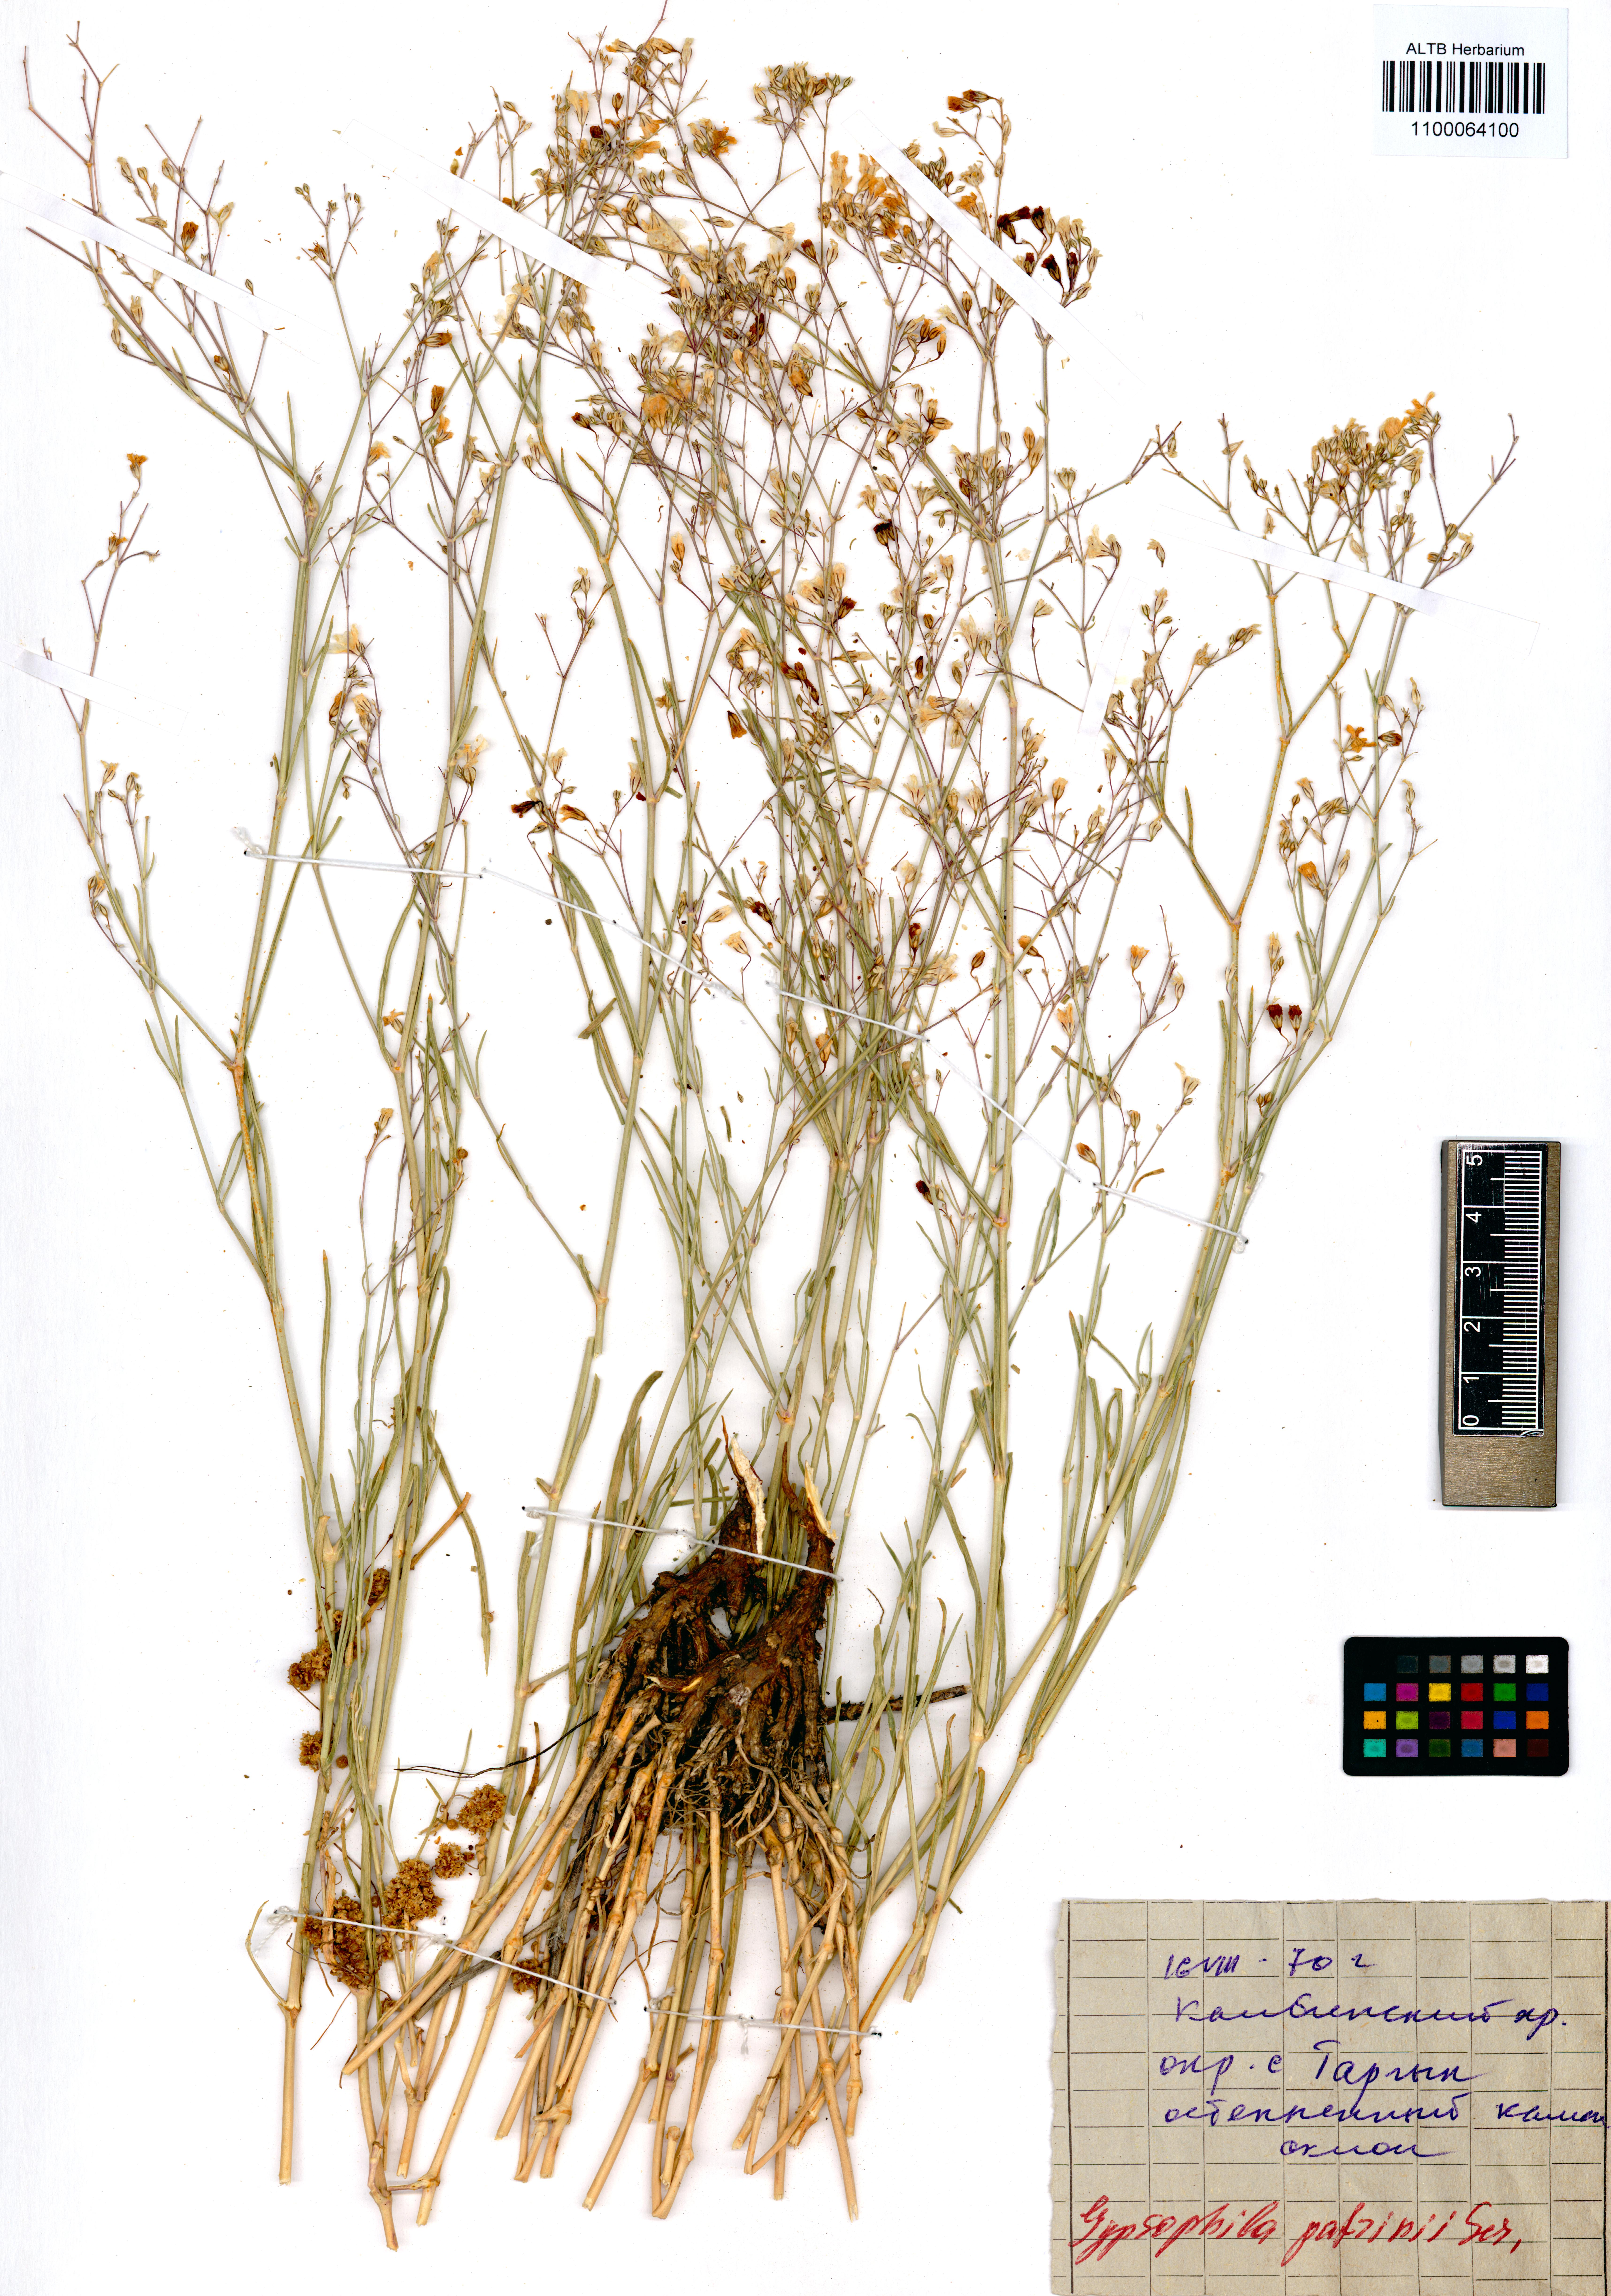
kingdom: Plantae
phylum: Tracheophyta
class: Magnoliopsida
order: Caryophyllales
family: Caryophyllaceae
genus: Gypsophila
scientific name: Gypsophila patrinii
